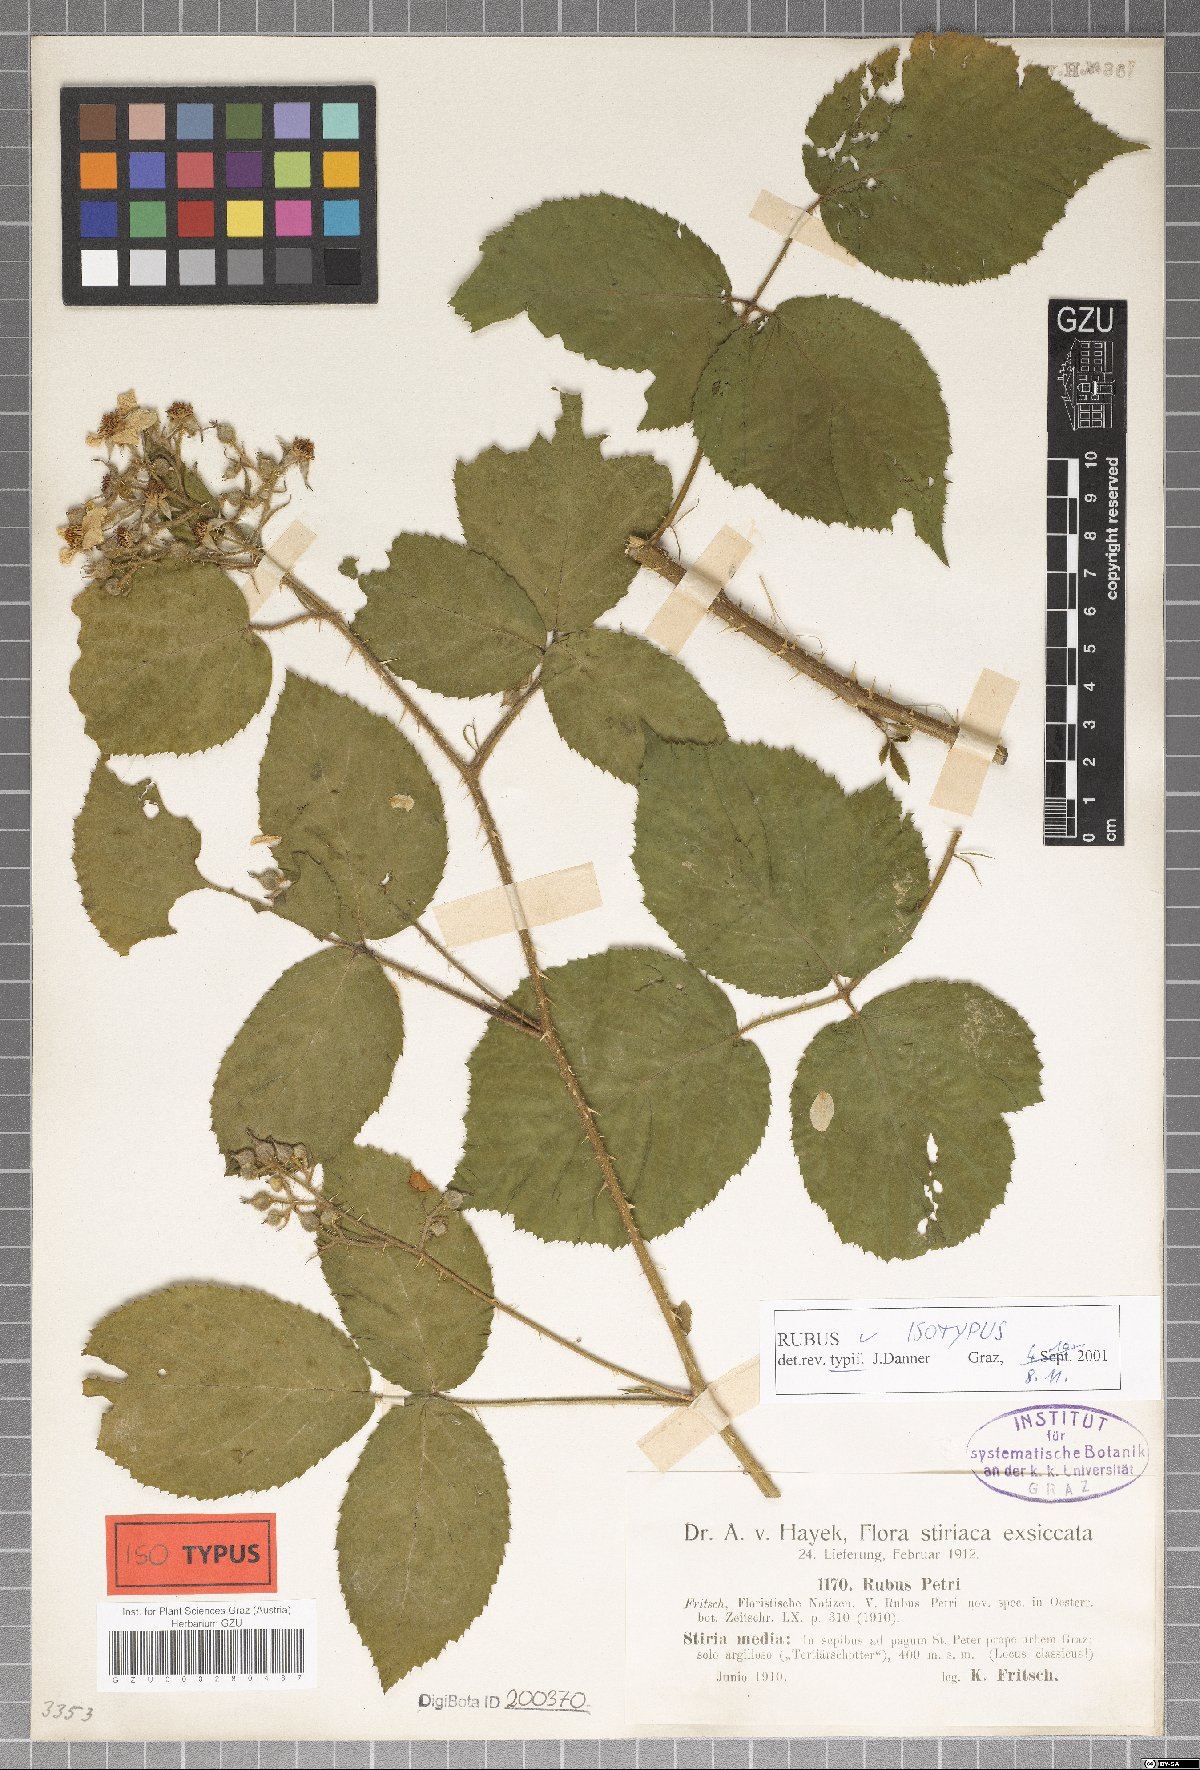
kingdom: Plantae
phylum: Tracheophyta
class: Magnoliopsida
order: Rosales
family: Rosaceae
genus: Rubus
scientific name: Rubus petri
